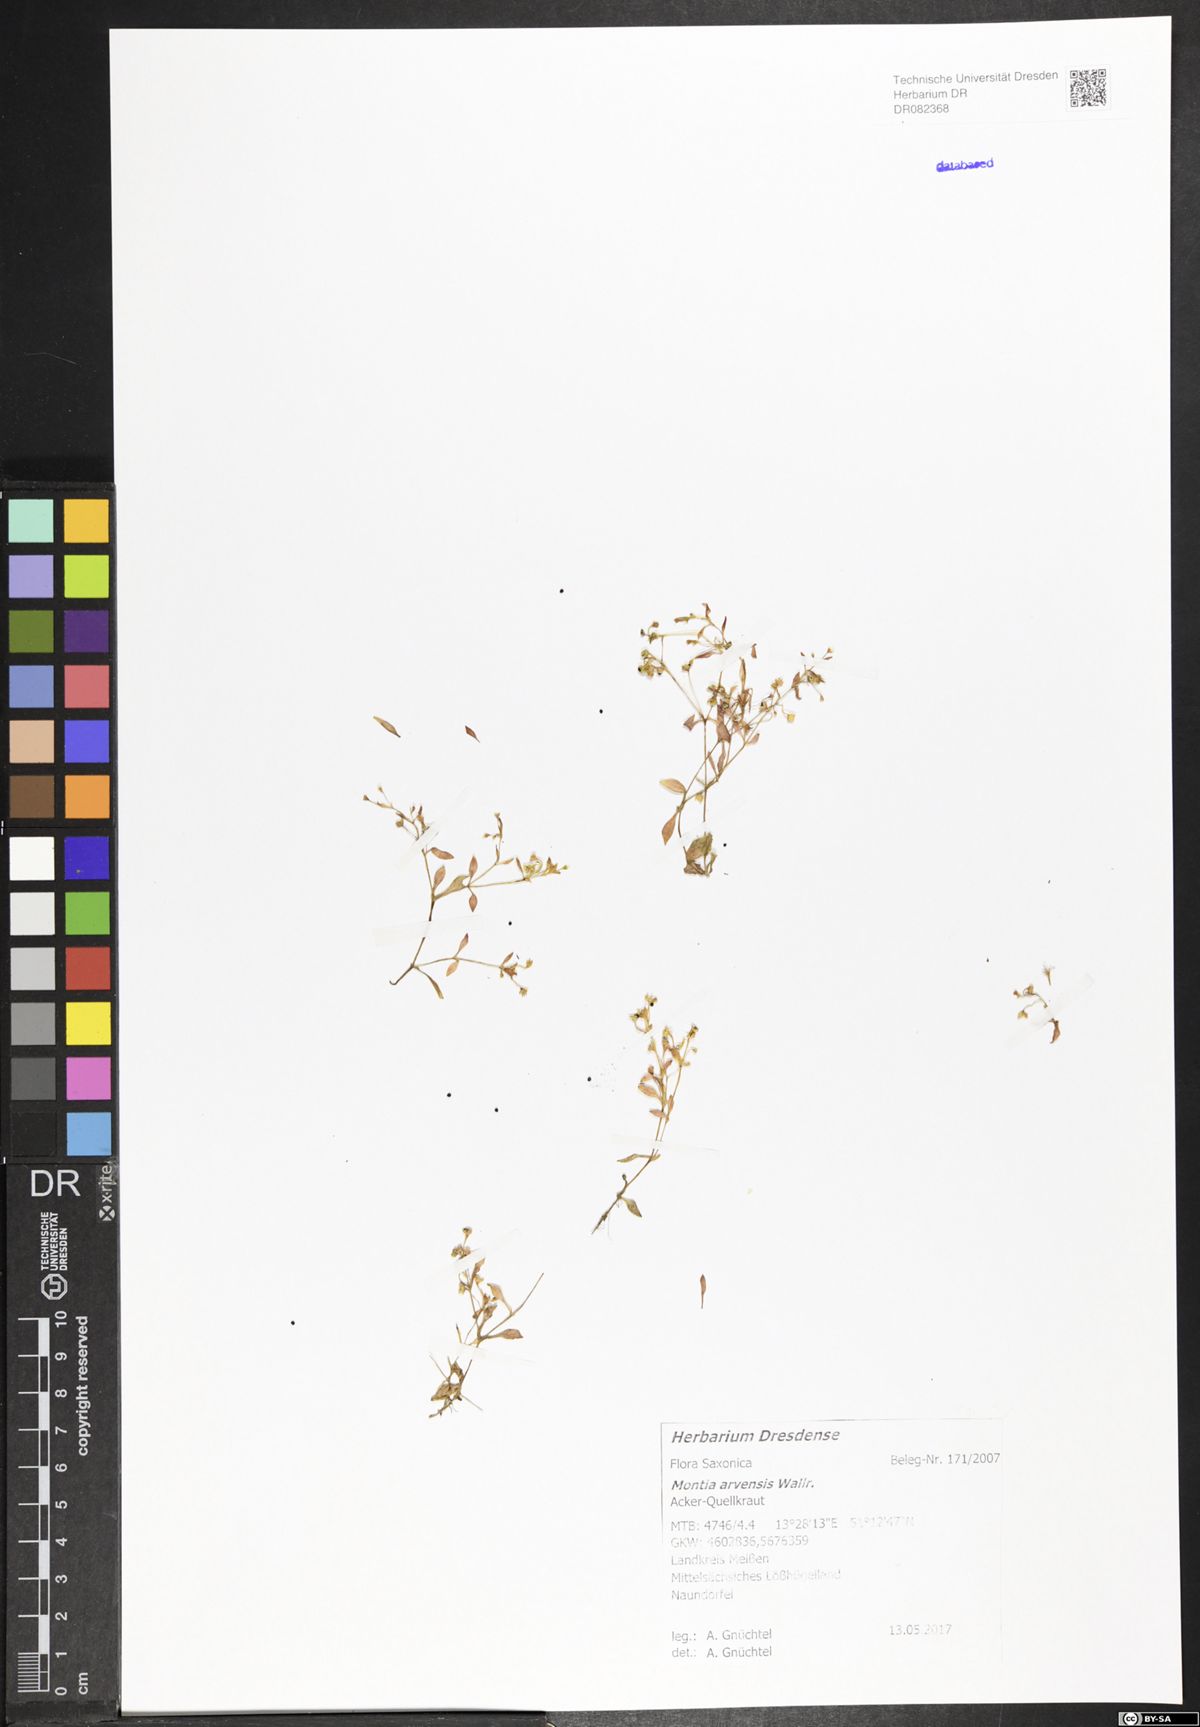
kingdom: Plantae
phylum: Tracheophyta
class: Magnoliopsida
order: Caryophyllales
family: Montiaceae
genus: Montia
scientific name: Montia arvensis
